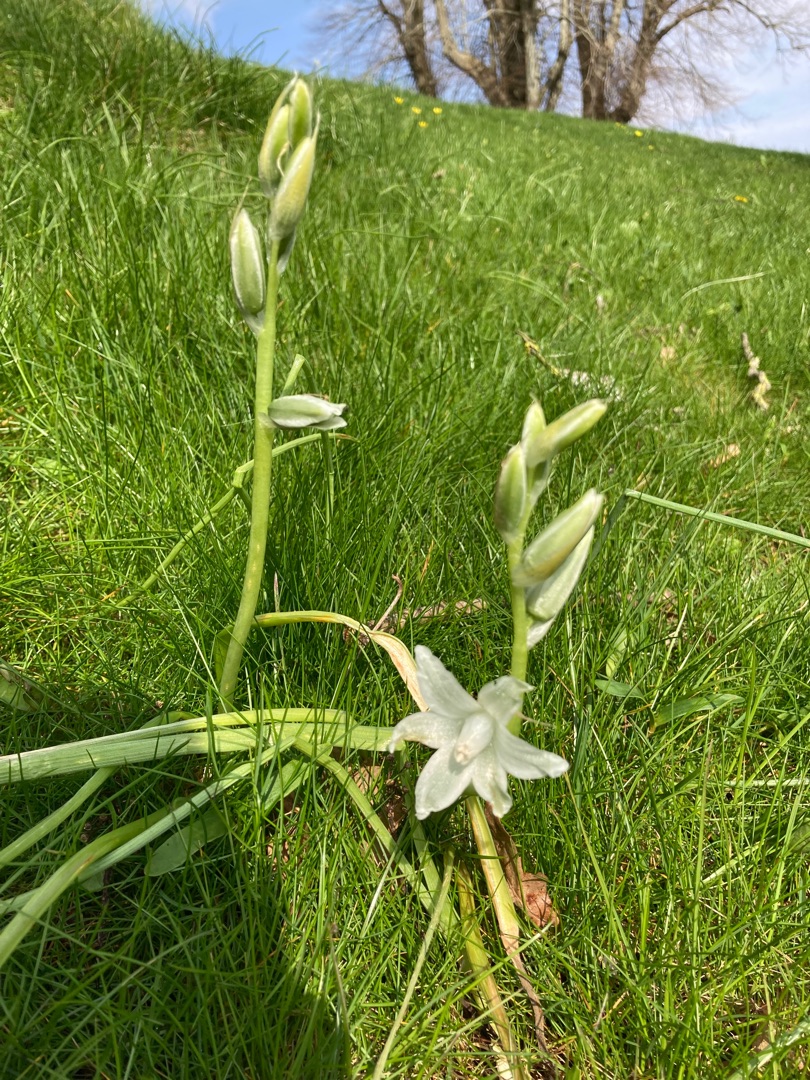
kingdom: Plantae
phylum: Tracheophyta
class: Liliopsida
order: Asparagales
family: Asparagaceae
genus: Ornithogalum
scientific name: Ornithogalum nutans
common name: Nikkende fuglemælk
